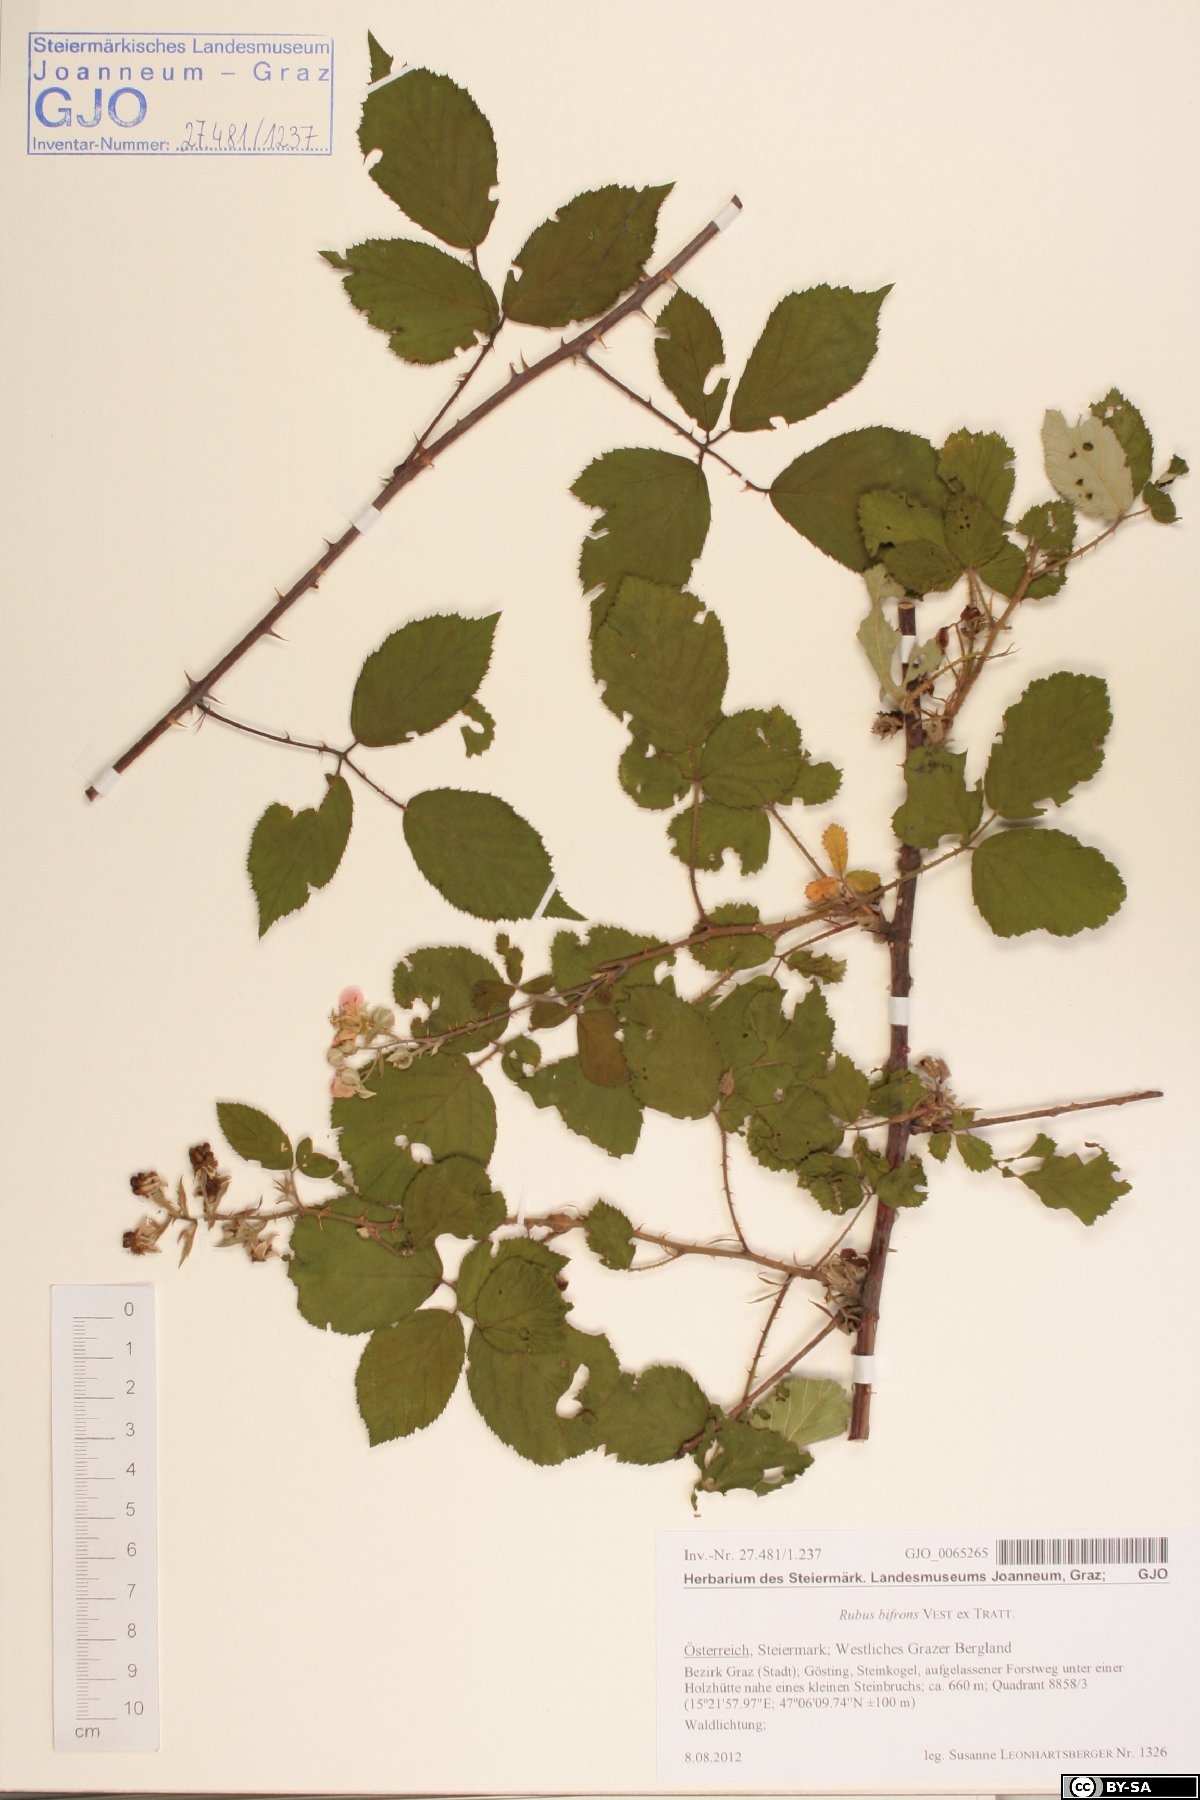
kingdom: Plantae
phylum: Tracheophyta
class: Magnoliopsida
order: Rosales
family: Rosaceae
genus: Rubus
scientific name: Rubus bifrons
